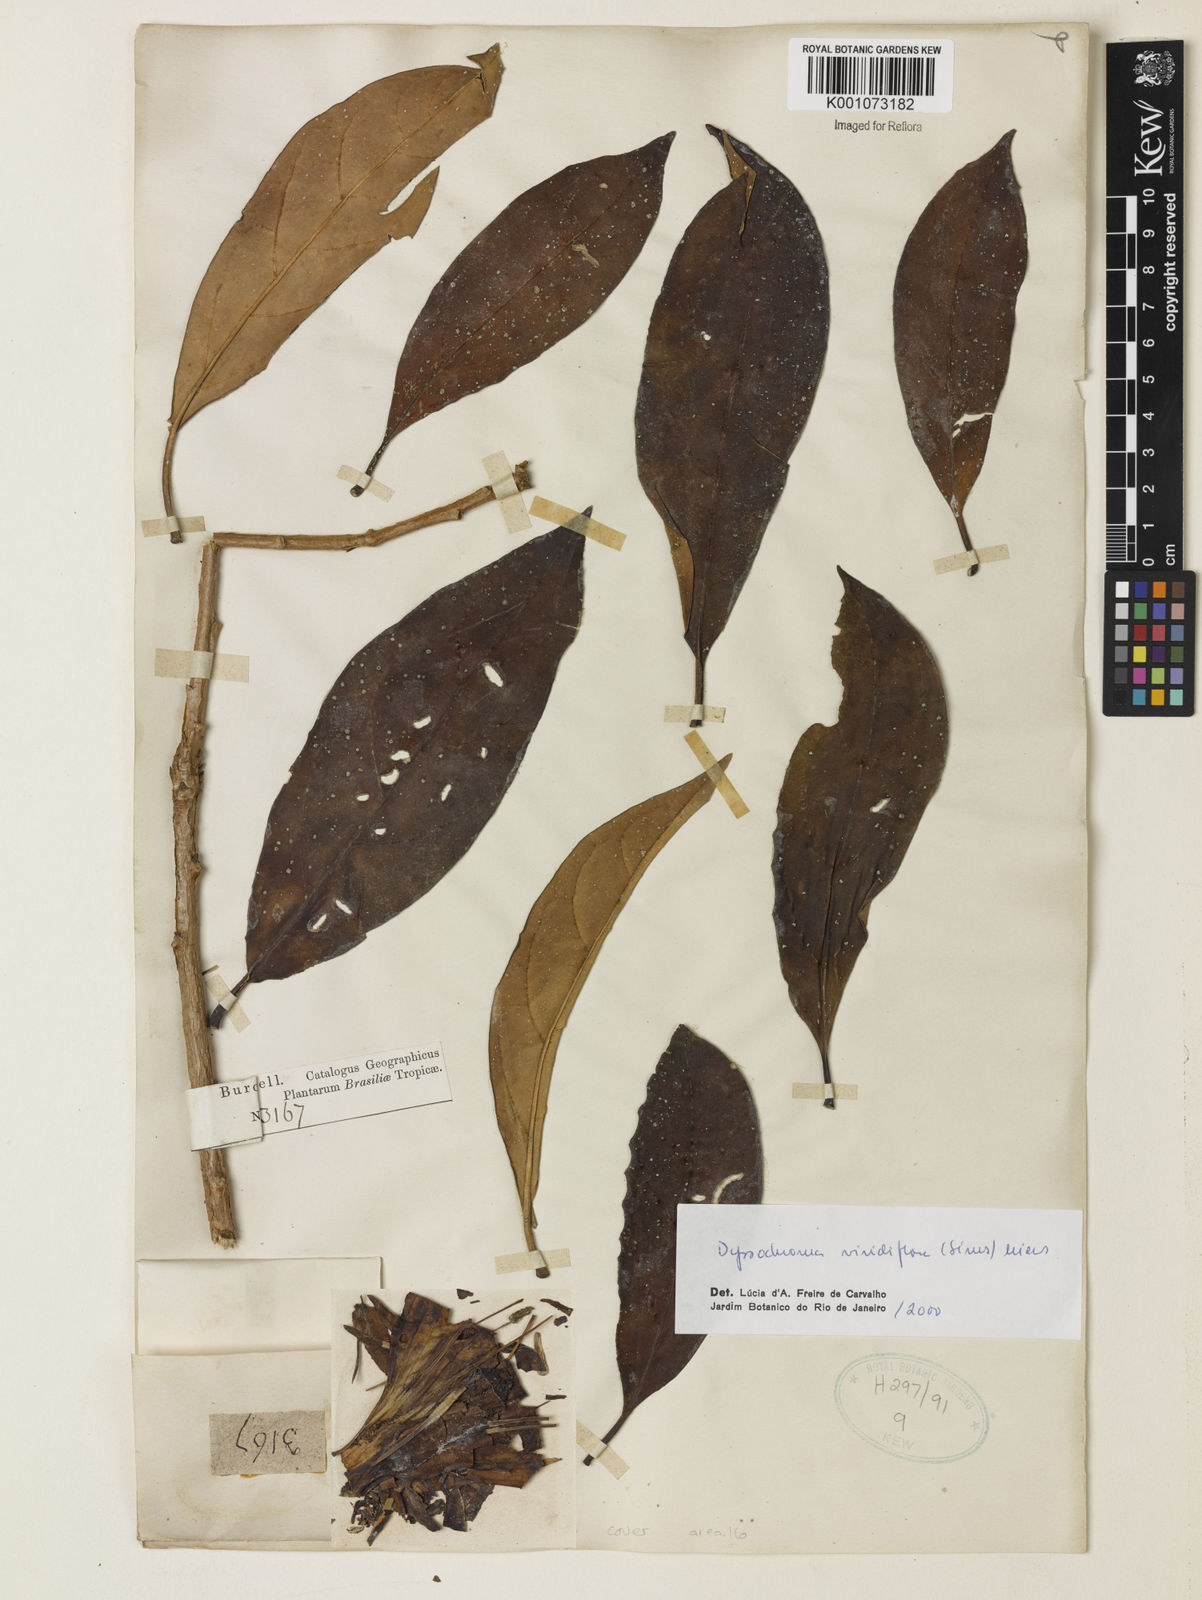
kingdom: Plantae
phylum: Tracheophyta
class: Magnoliopsida
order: Solanales
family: Solanaceae
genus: Dyssochroma
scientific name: Dyssochroma viridiflorum
